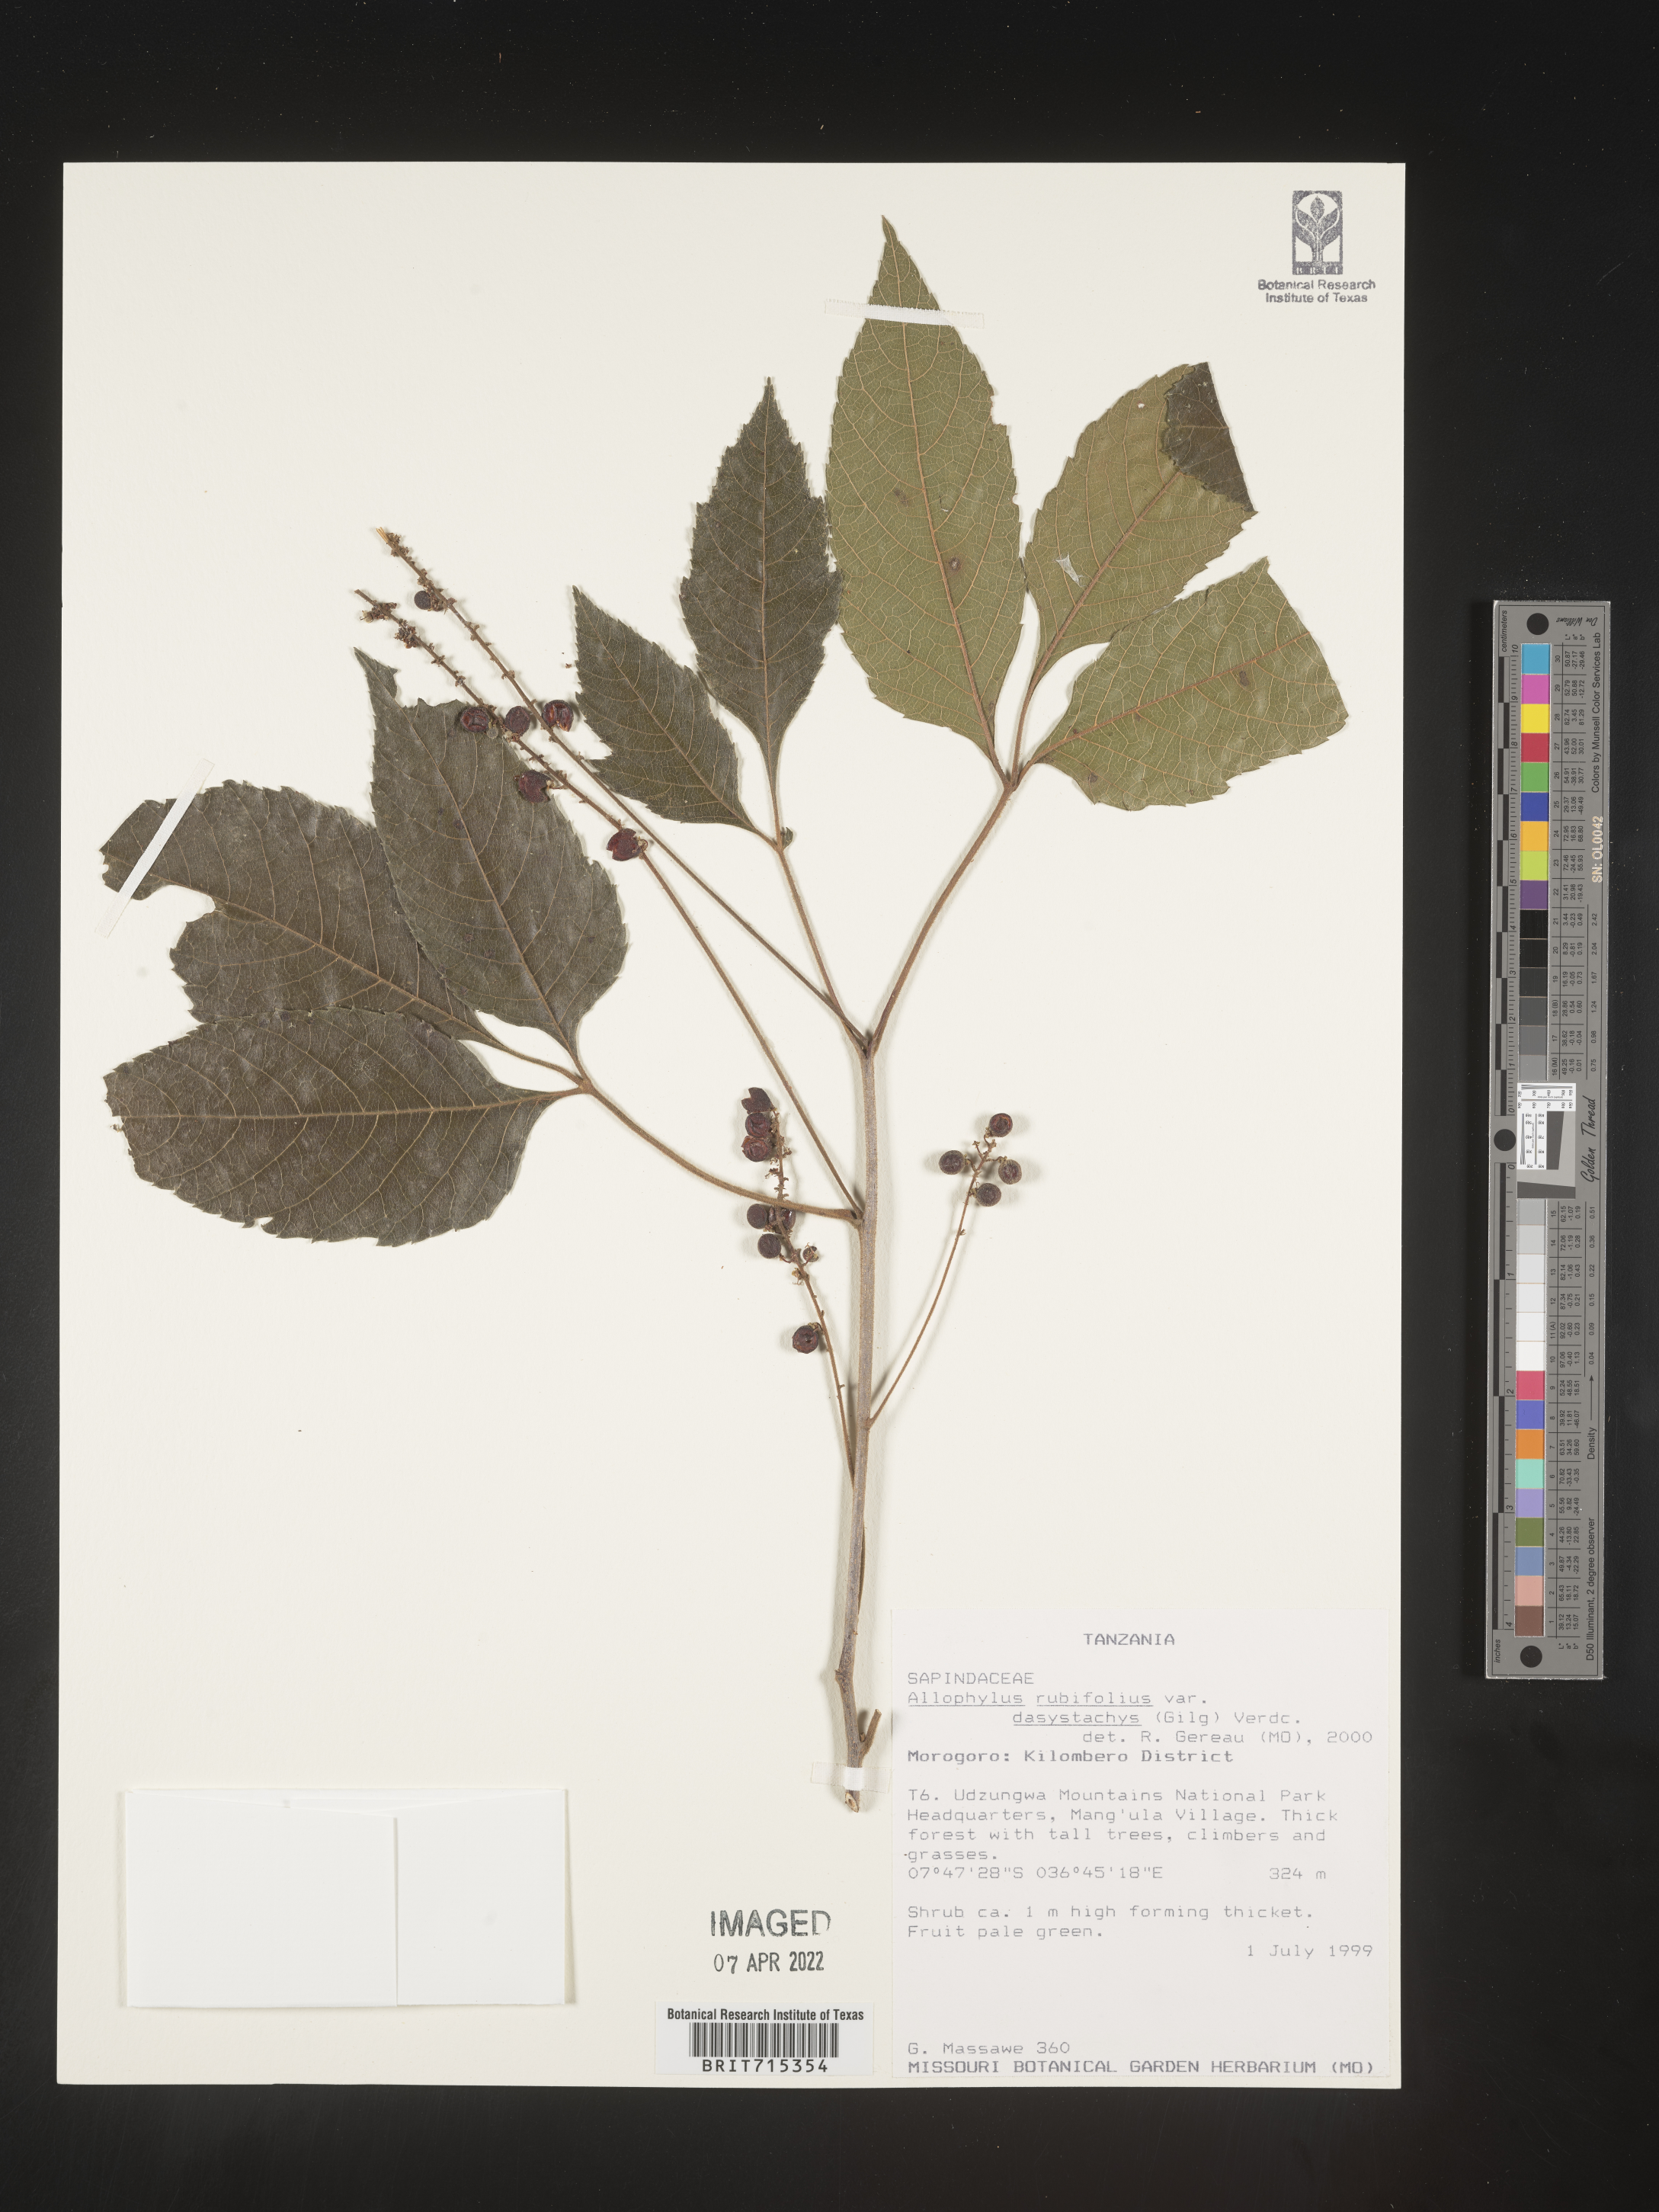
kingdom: Plantae
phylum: Tracheophyta
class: Magnoliopsida
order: Sapindales
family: Sapindaceae
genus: Allophylus
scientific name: Allophylus rubifolius
